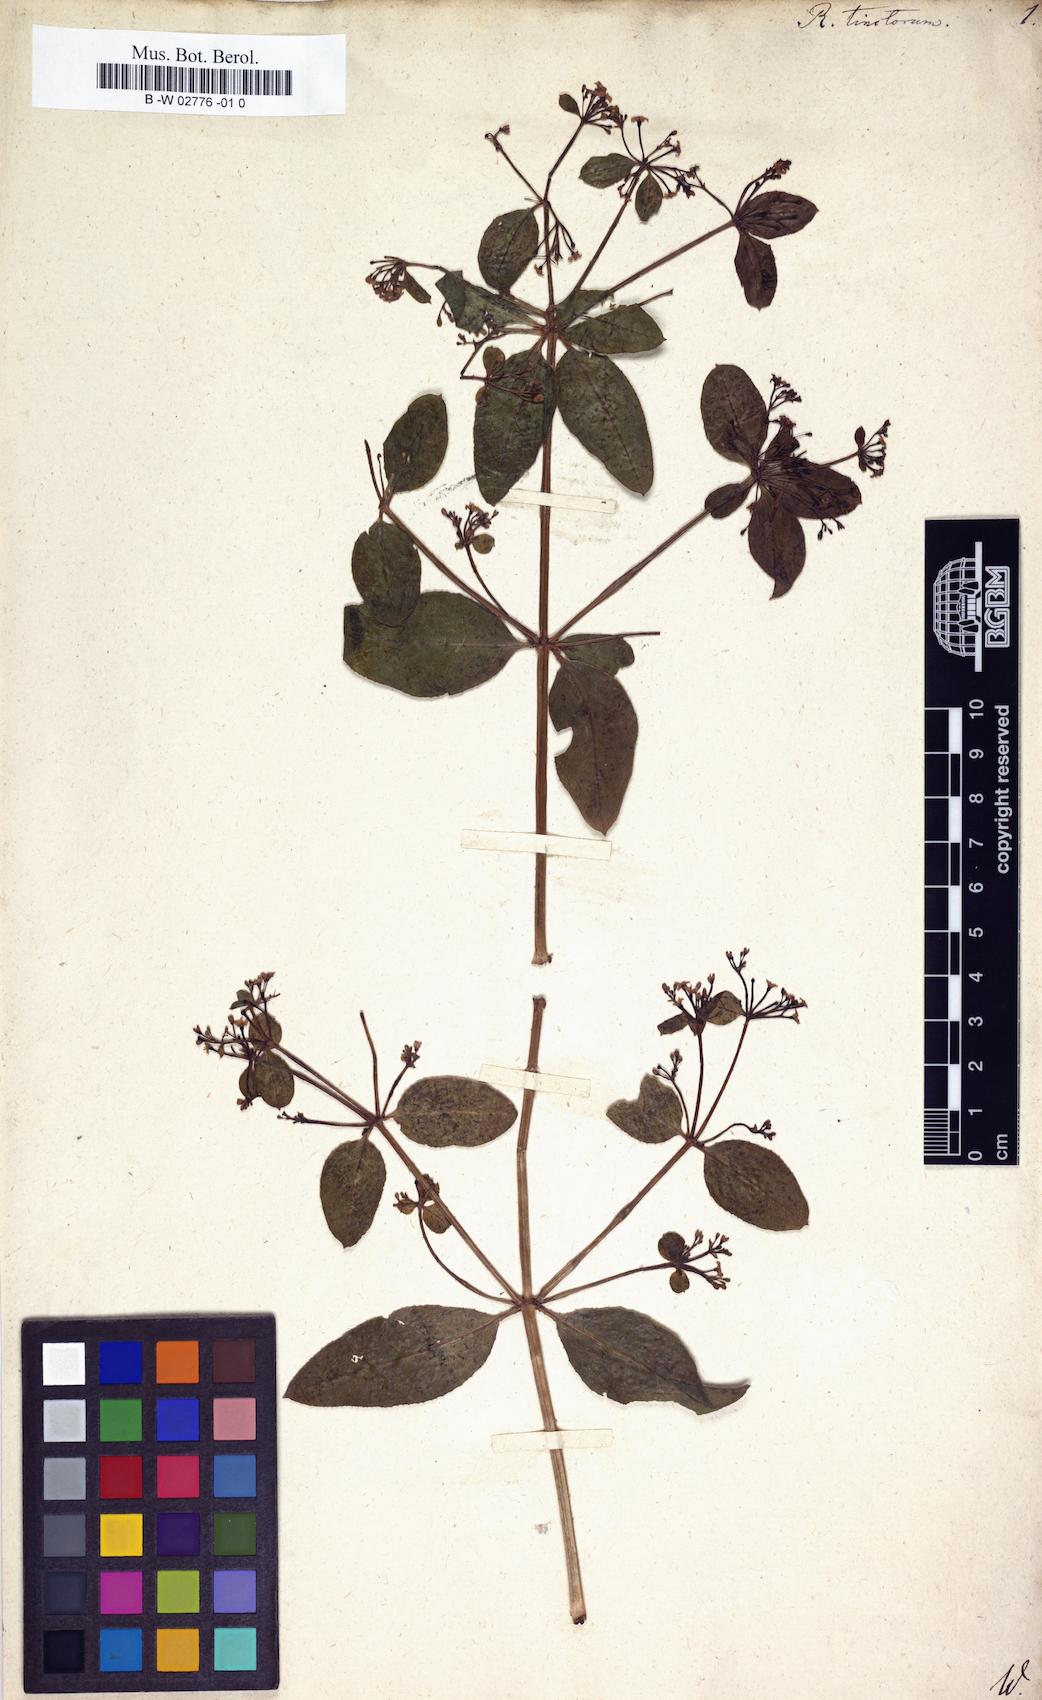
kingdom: Plantae
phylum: Tracheophyta
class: Magnoliopsida
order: Gentianales
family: Rubiaceae
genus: Rubia
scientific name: Rubia tinctorum
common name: Dyer's madder
